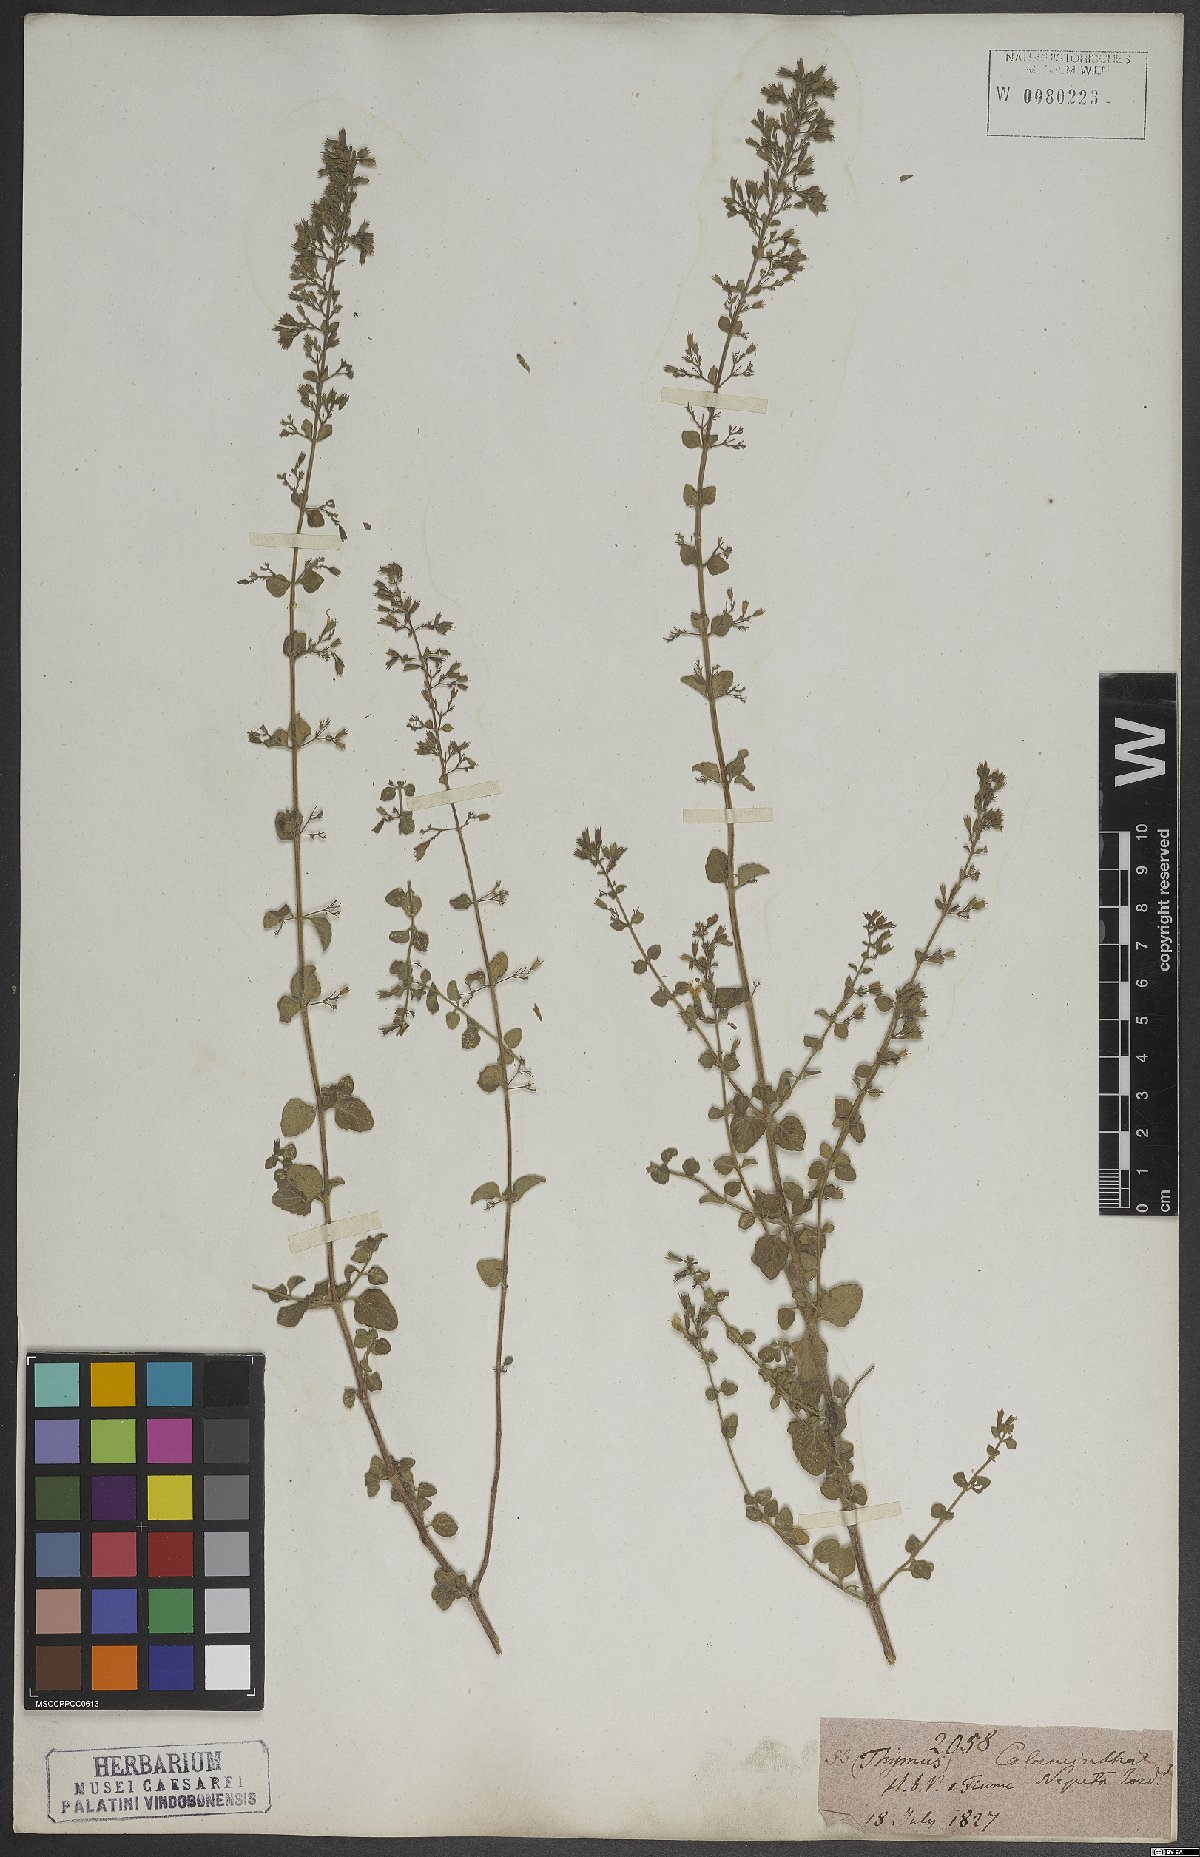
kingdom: Plantae
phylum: Tracheophyta
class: Magnoliopsida
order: Lamiales
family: Lamiaceae
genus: Clinopodium
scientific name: Clinopodium nepeta
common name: Lesser calamint
